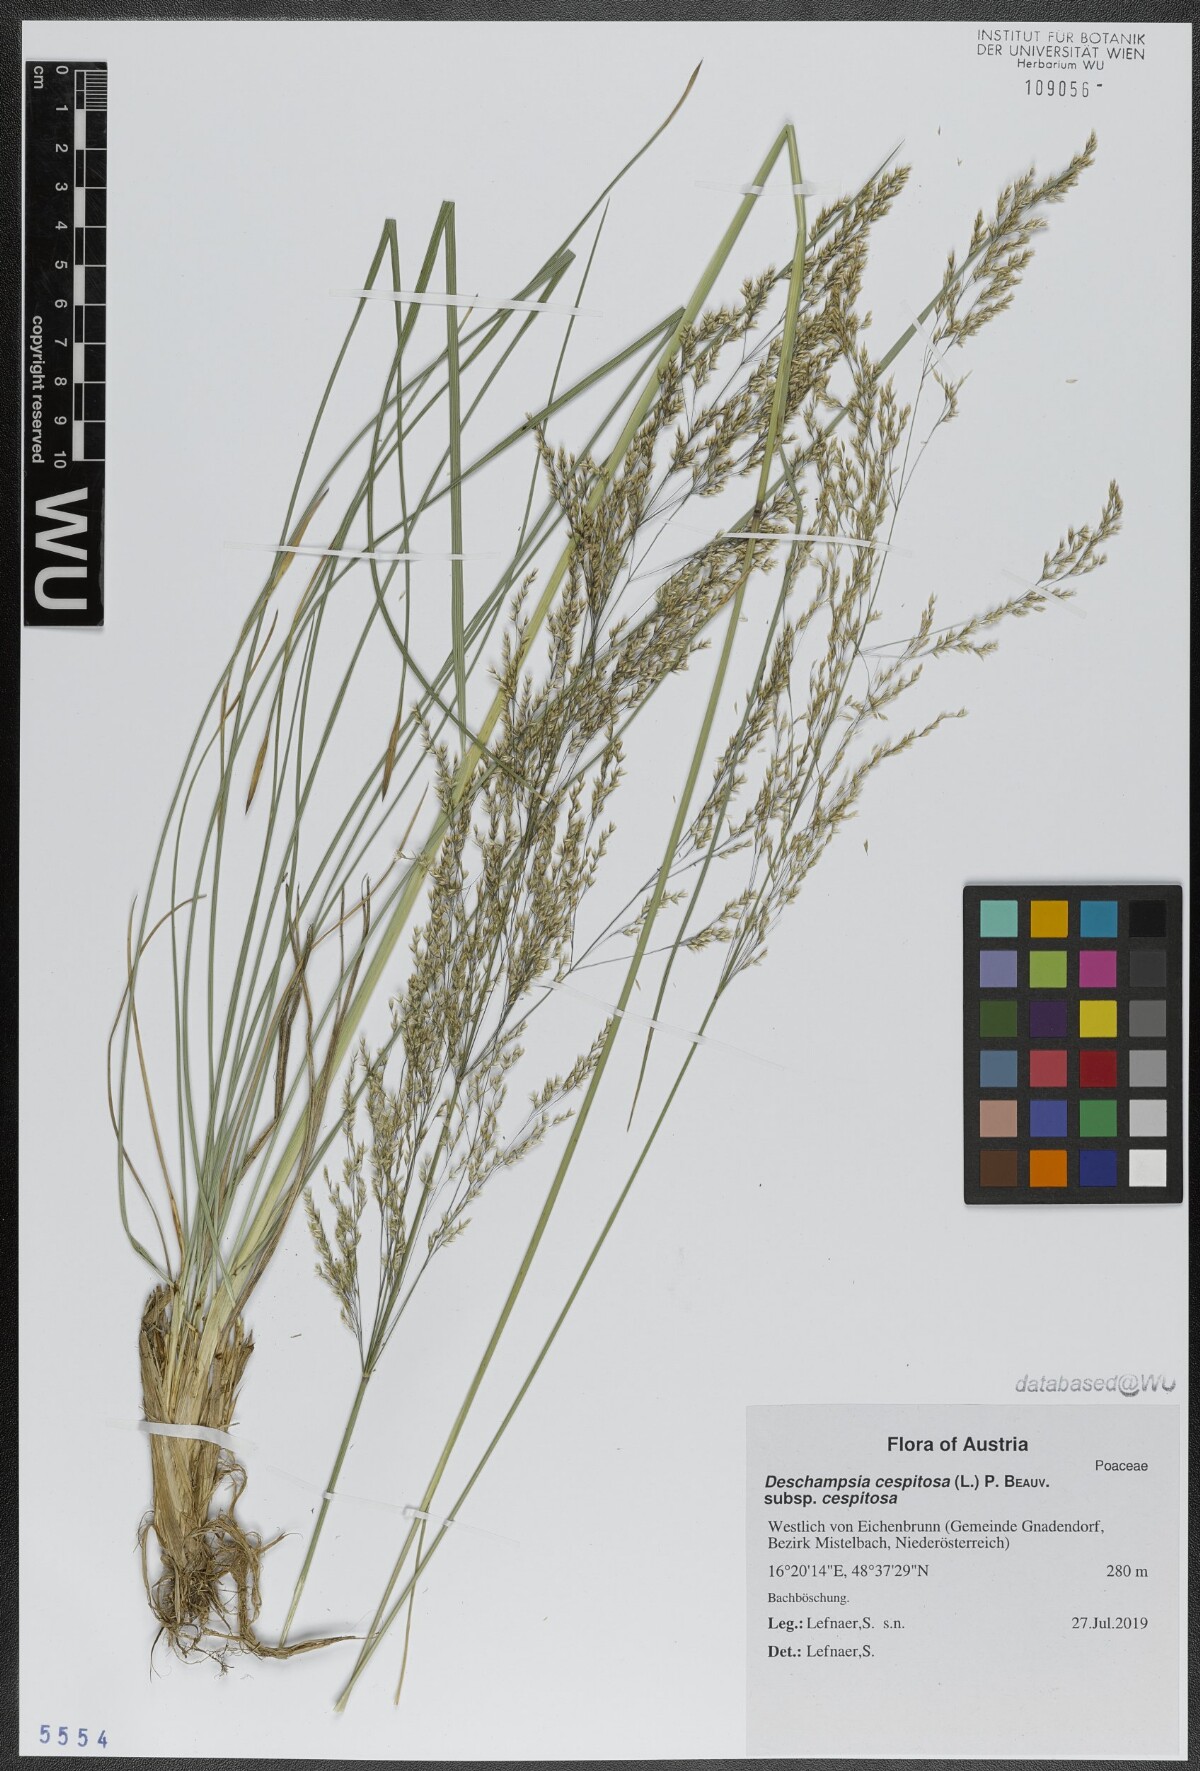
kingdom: Plantae
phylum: Tracheophyta
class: Liliopsida
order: Poales
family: Poaceae
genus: Deschampsia
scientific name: Deschampsia cespitosa
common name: Tufted hair-grass
